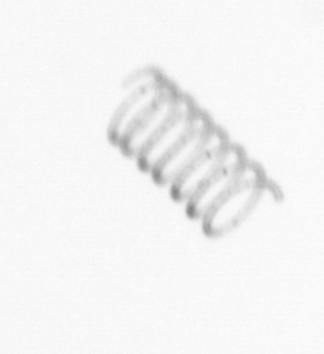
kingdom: Chromista
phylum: Ochrophyta
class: Bacillariophyceae
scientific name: Bacillariophyceae
